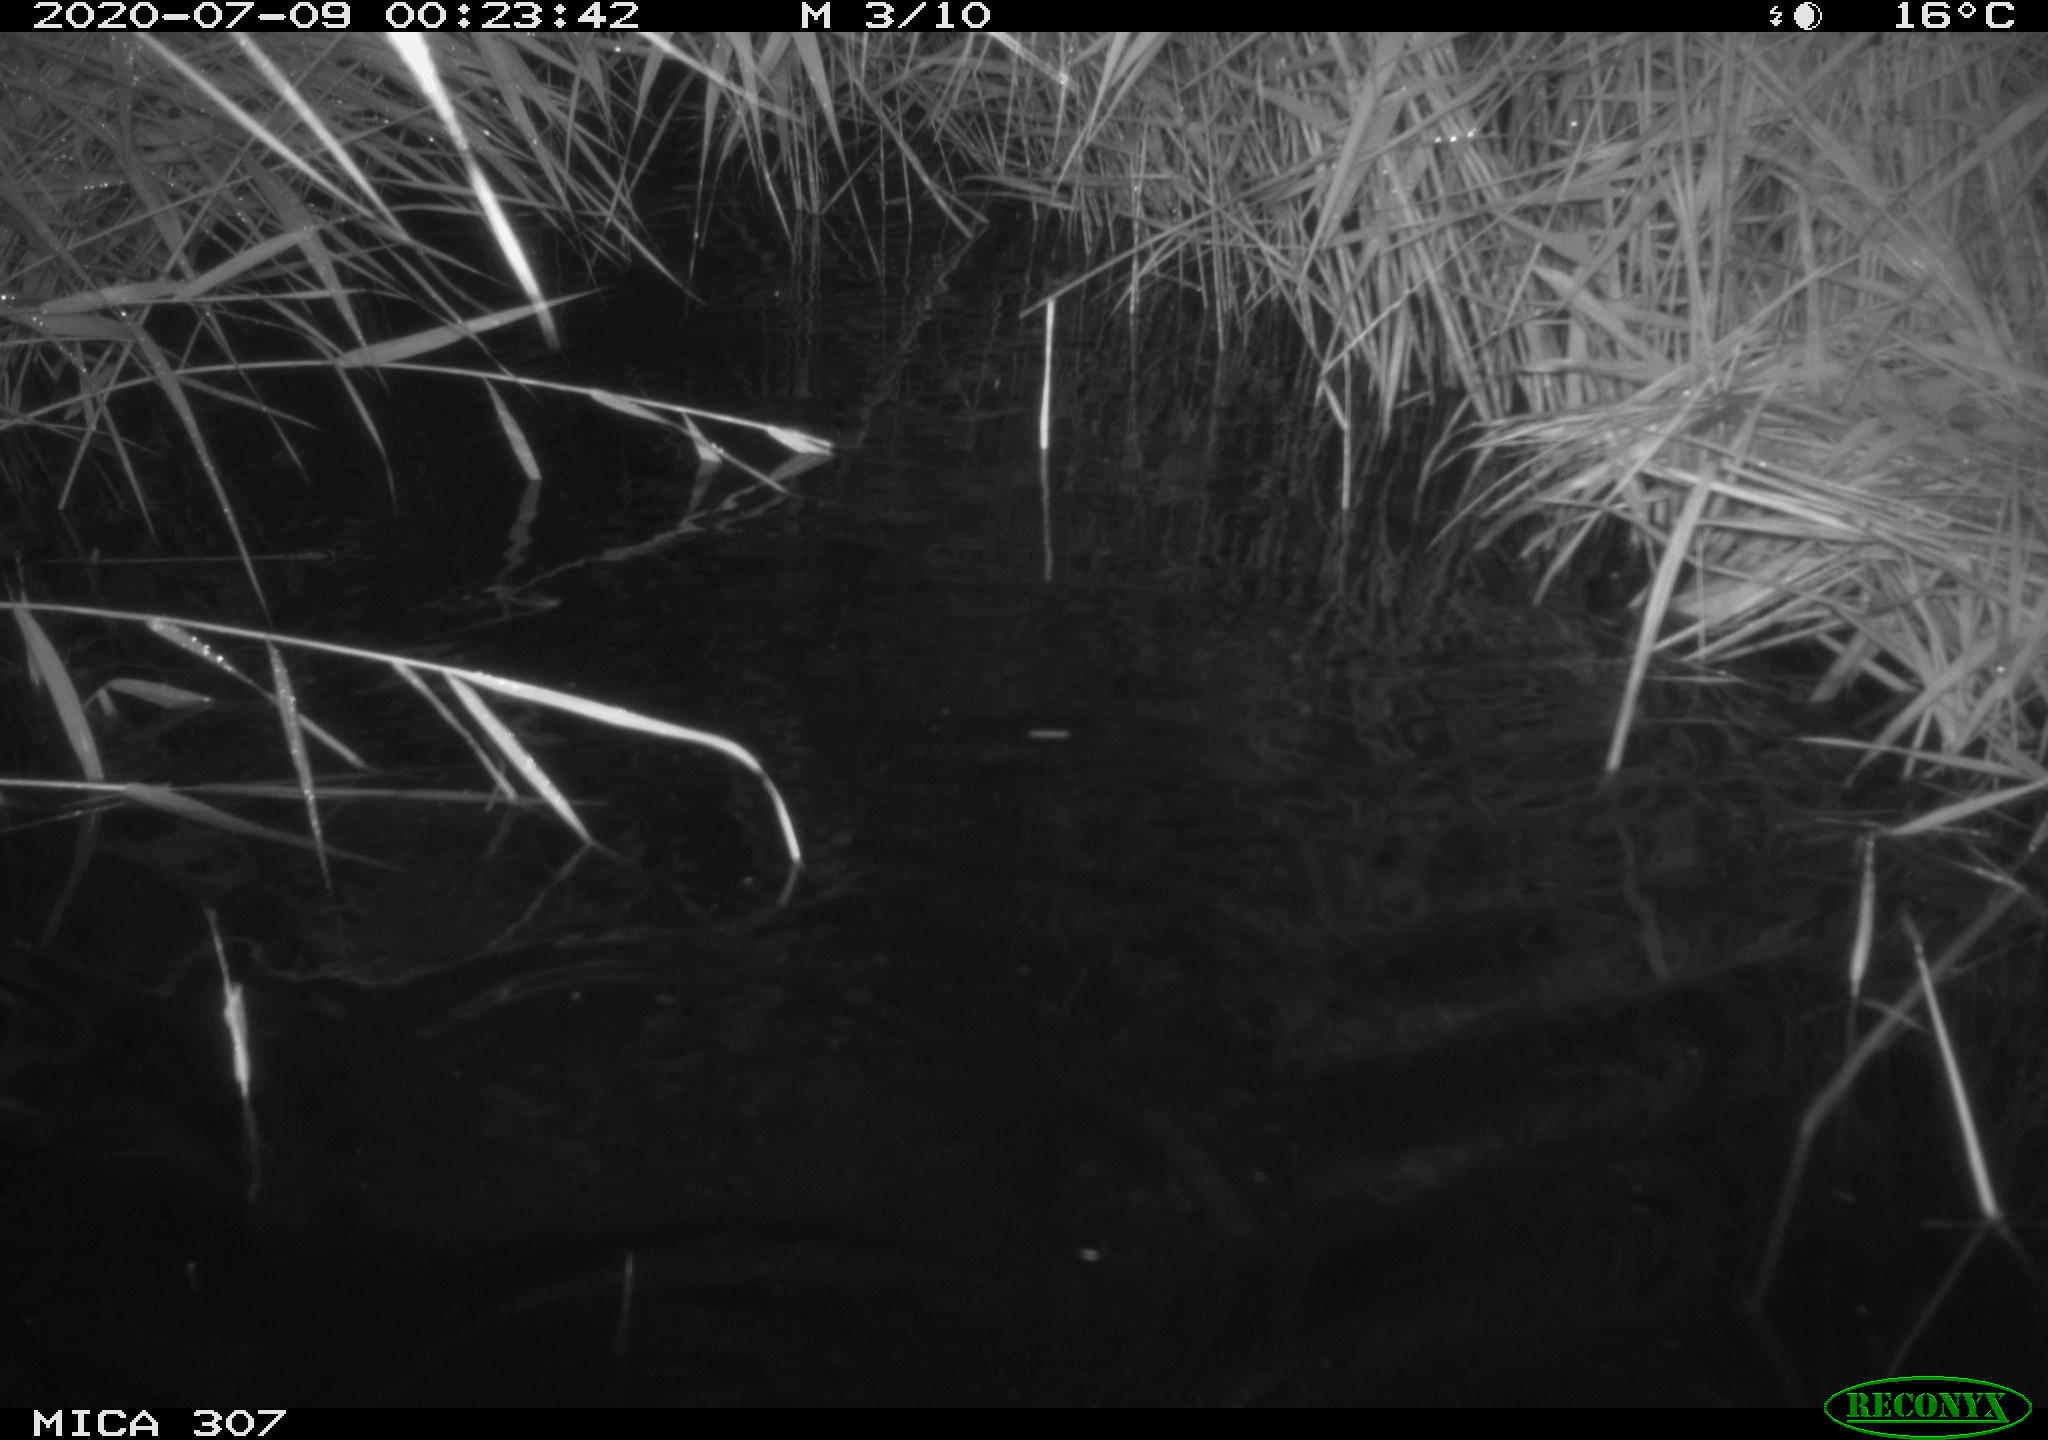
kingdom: Animalia
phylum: Chordata
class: Mammalia
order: Rodentia
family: Cricetidae
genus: Ondatra
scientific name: Ondatra zibethicus
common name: Muskrat
